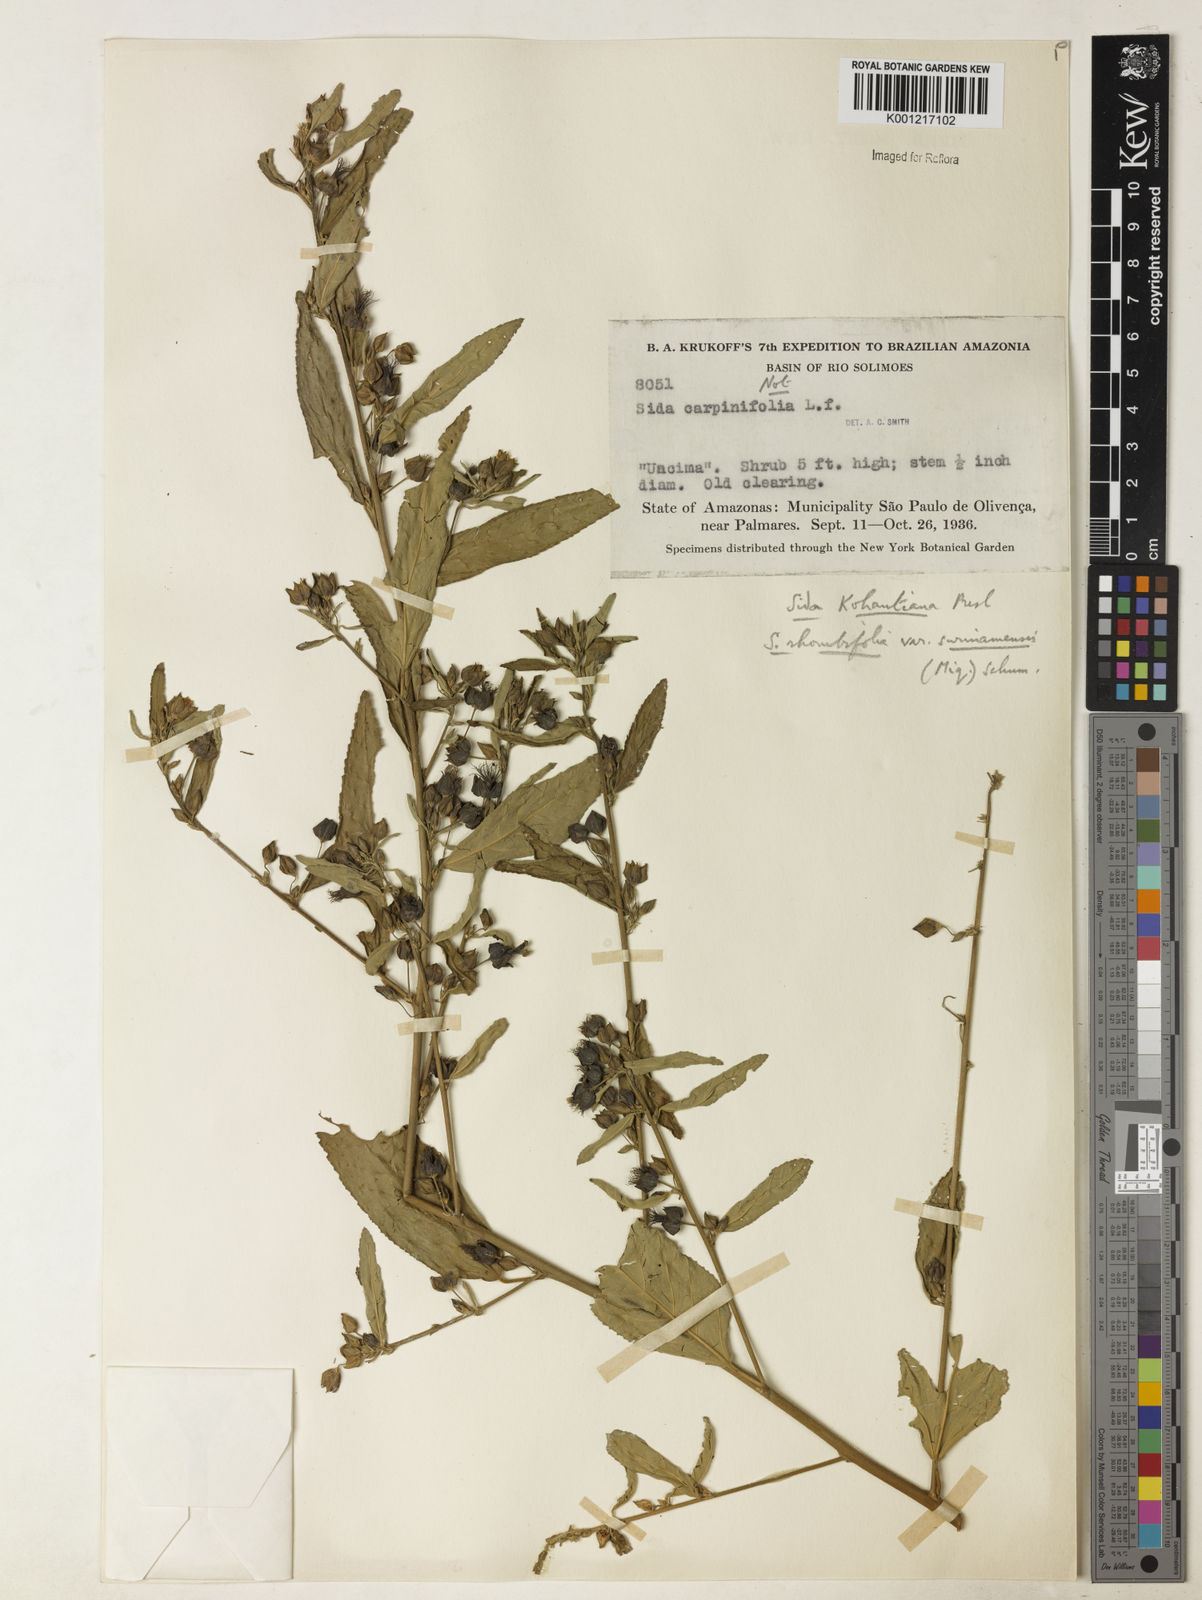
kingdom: Plantae
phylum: Tracheophyta
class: Magnoliopsida
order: Malvales
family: Malvaceae
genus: Sida
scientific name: Sida
